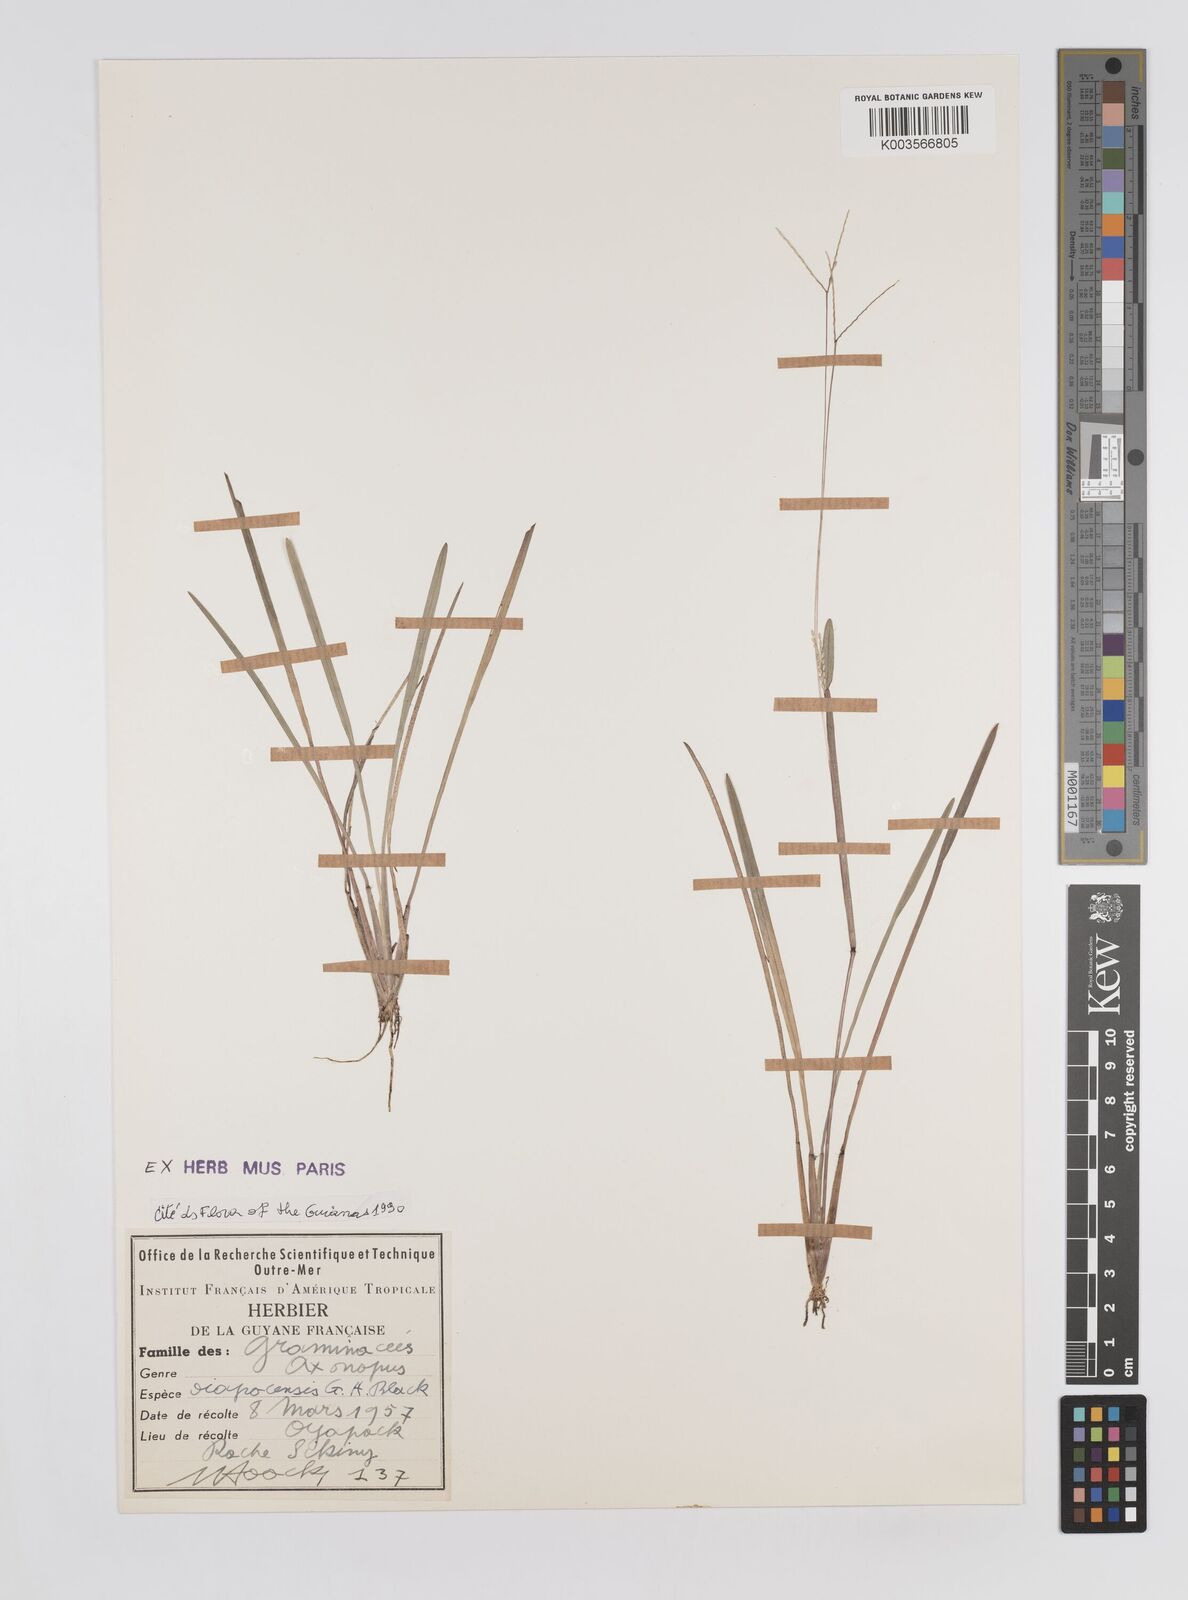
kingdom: Plantae
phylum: Tracheophyta
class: Liliopsida
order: Poales
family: Poaceae
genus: Axonopus
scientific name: Axonopus oiapocensis
